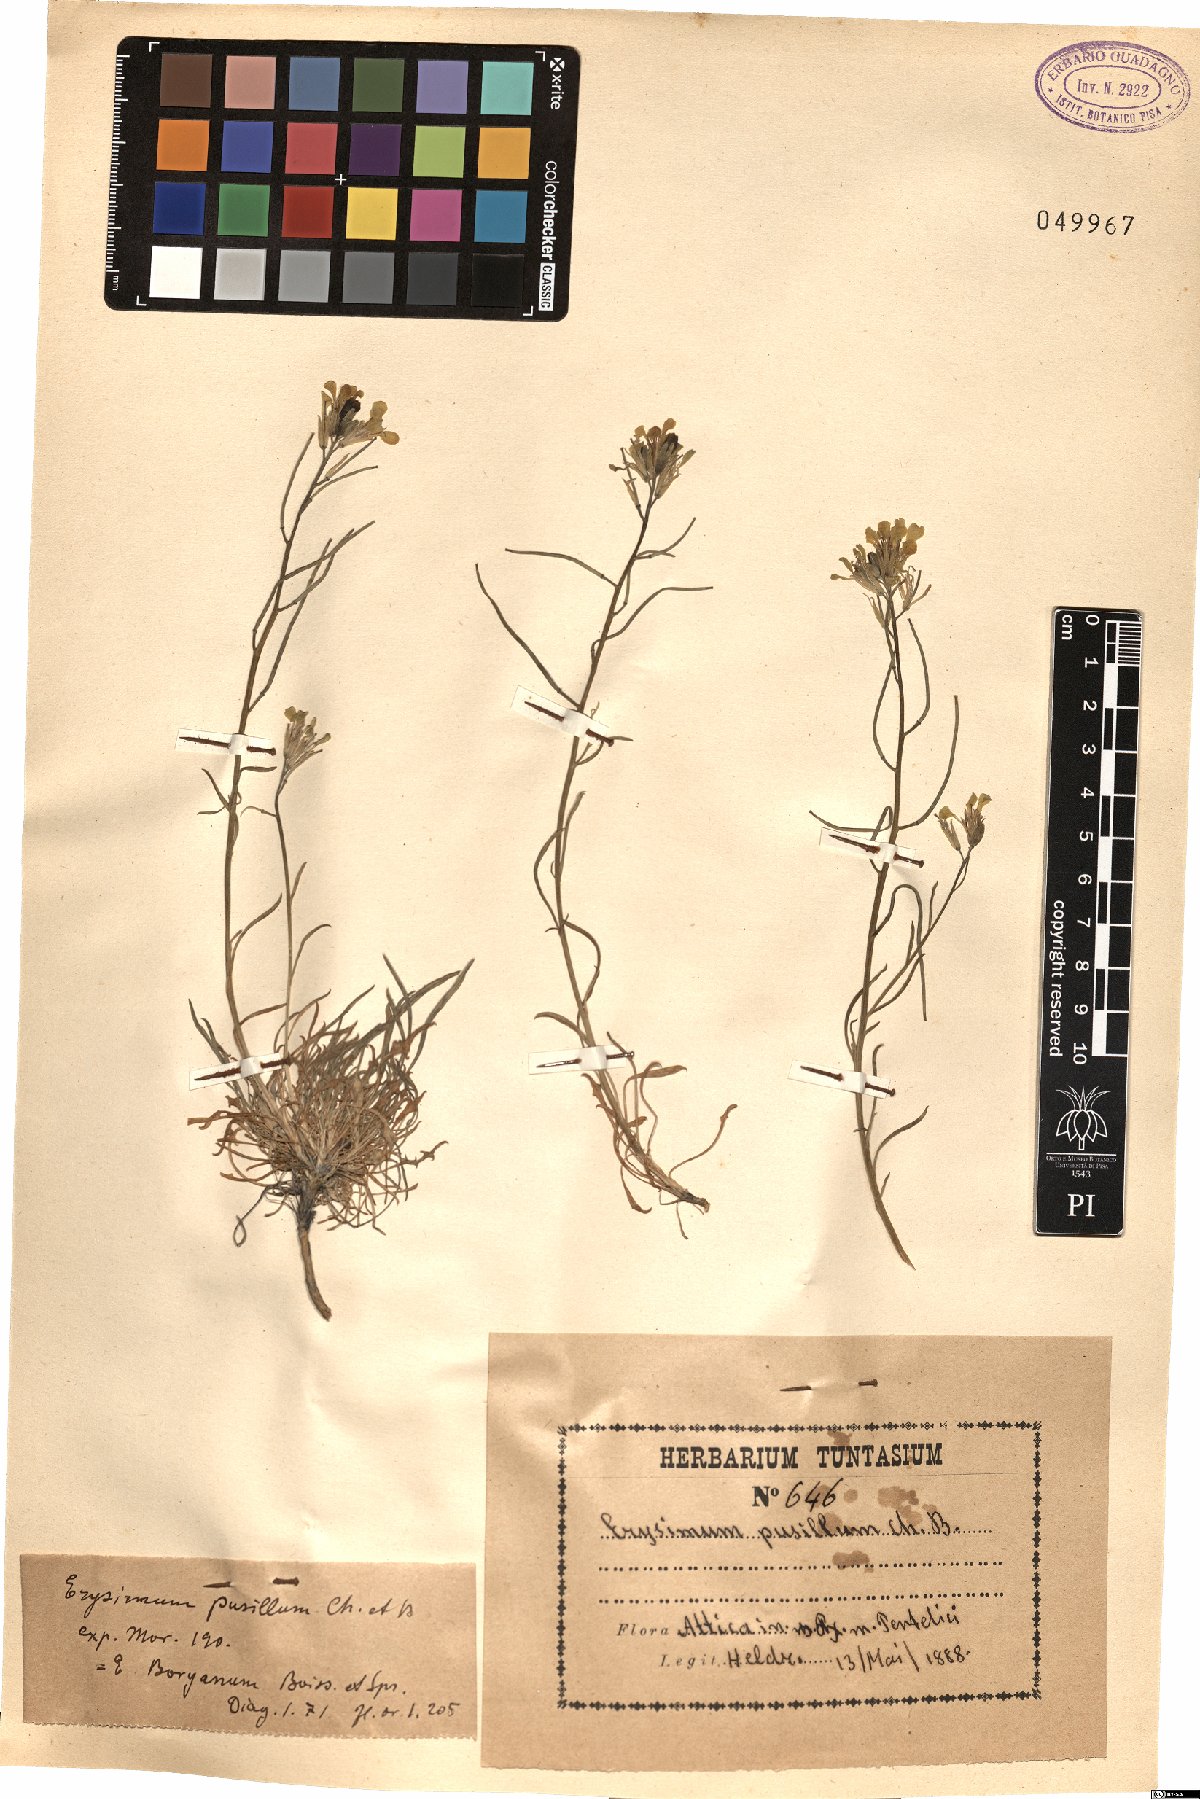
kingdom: Plantae
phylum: Tracheophyta
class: Magnoliopsida
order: Brassicales
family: Brassicaceae
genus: Erysimum
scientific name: Erysimum pusillum
